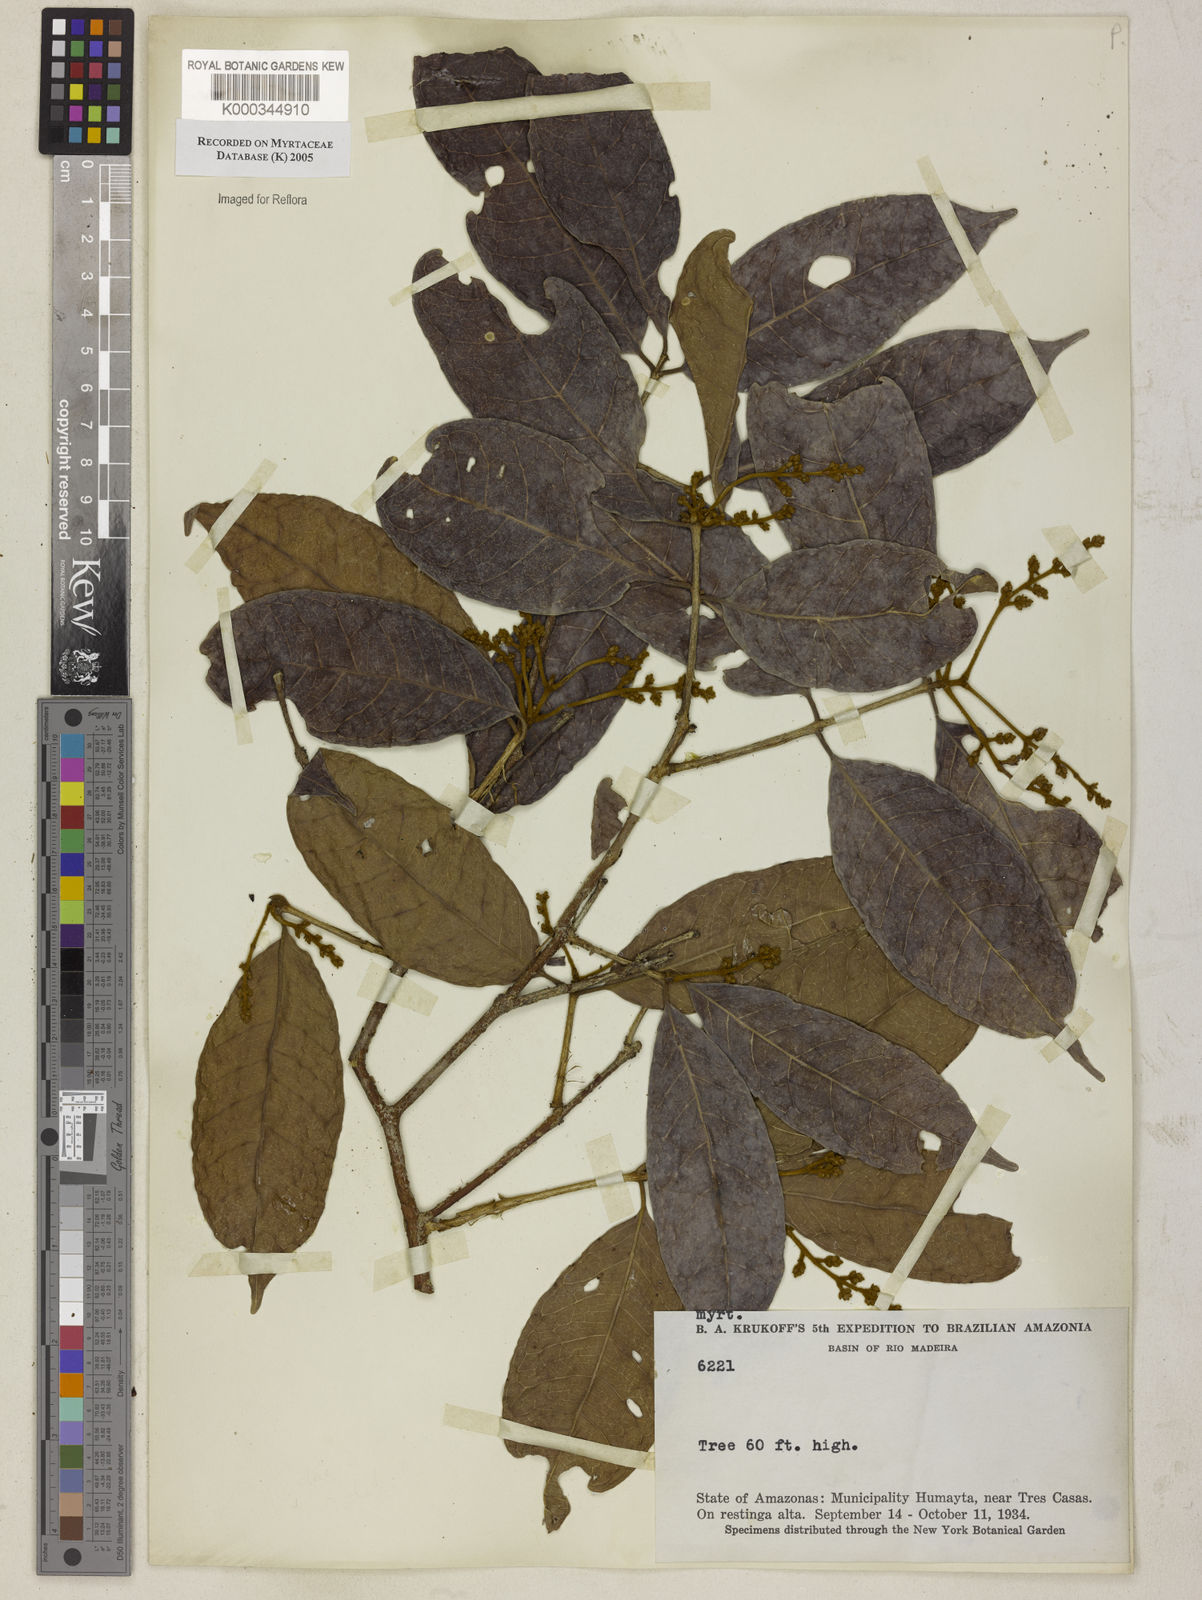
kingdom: Plantae
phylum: Tracheophyta
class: Magnoliopsida
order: Myrtales
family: Myrtaceae
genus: Myrcia
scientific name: Myrcia
